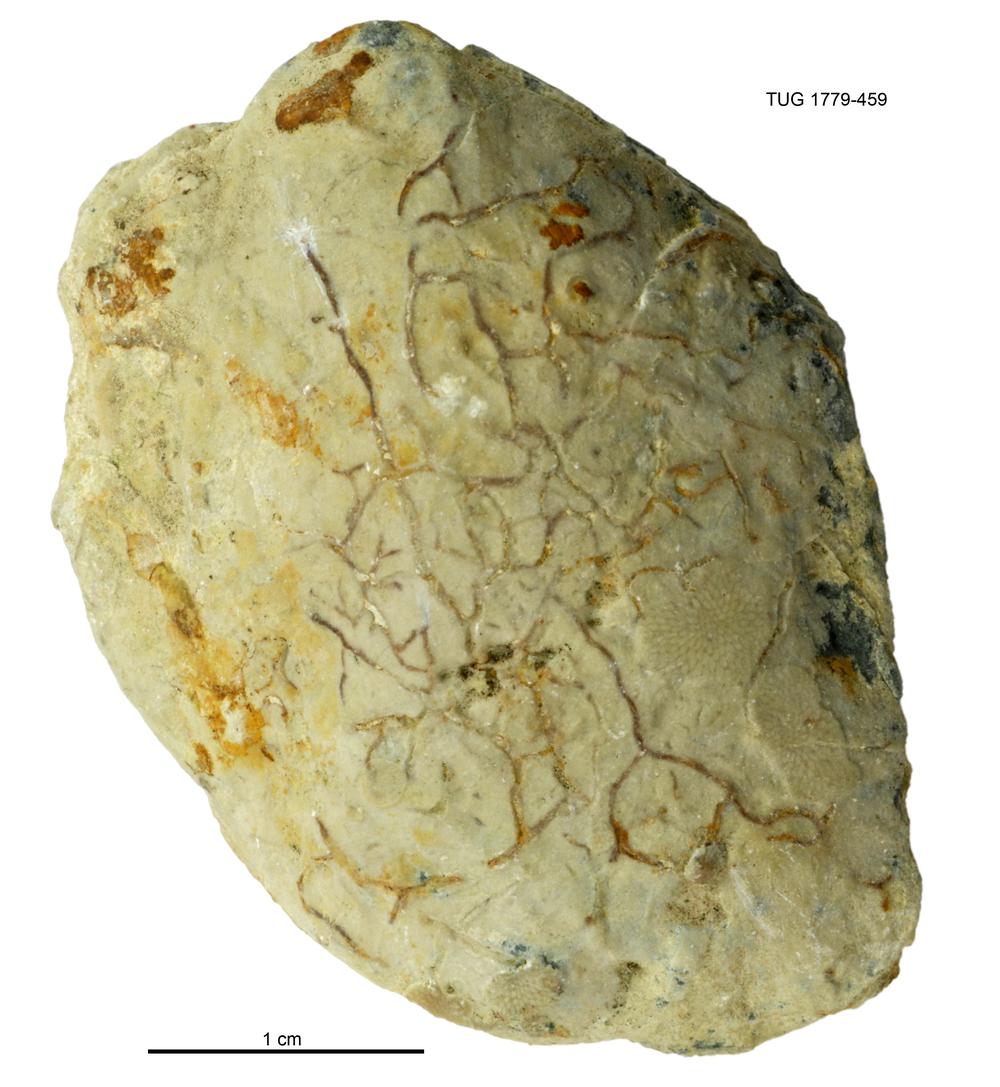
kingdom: Animalia
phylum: Mollusca
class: Bivalvia
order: Modiomorphida
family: Modiomorphidae
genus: Modiolopsis
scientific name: Modiolopsis
